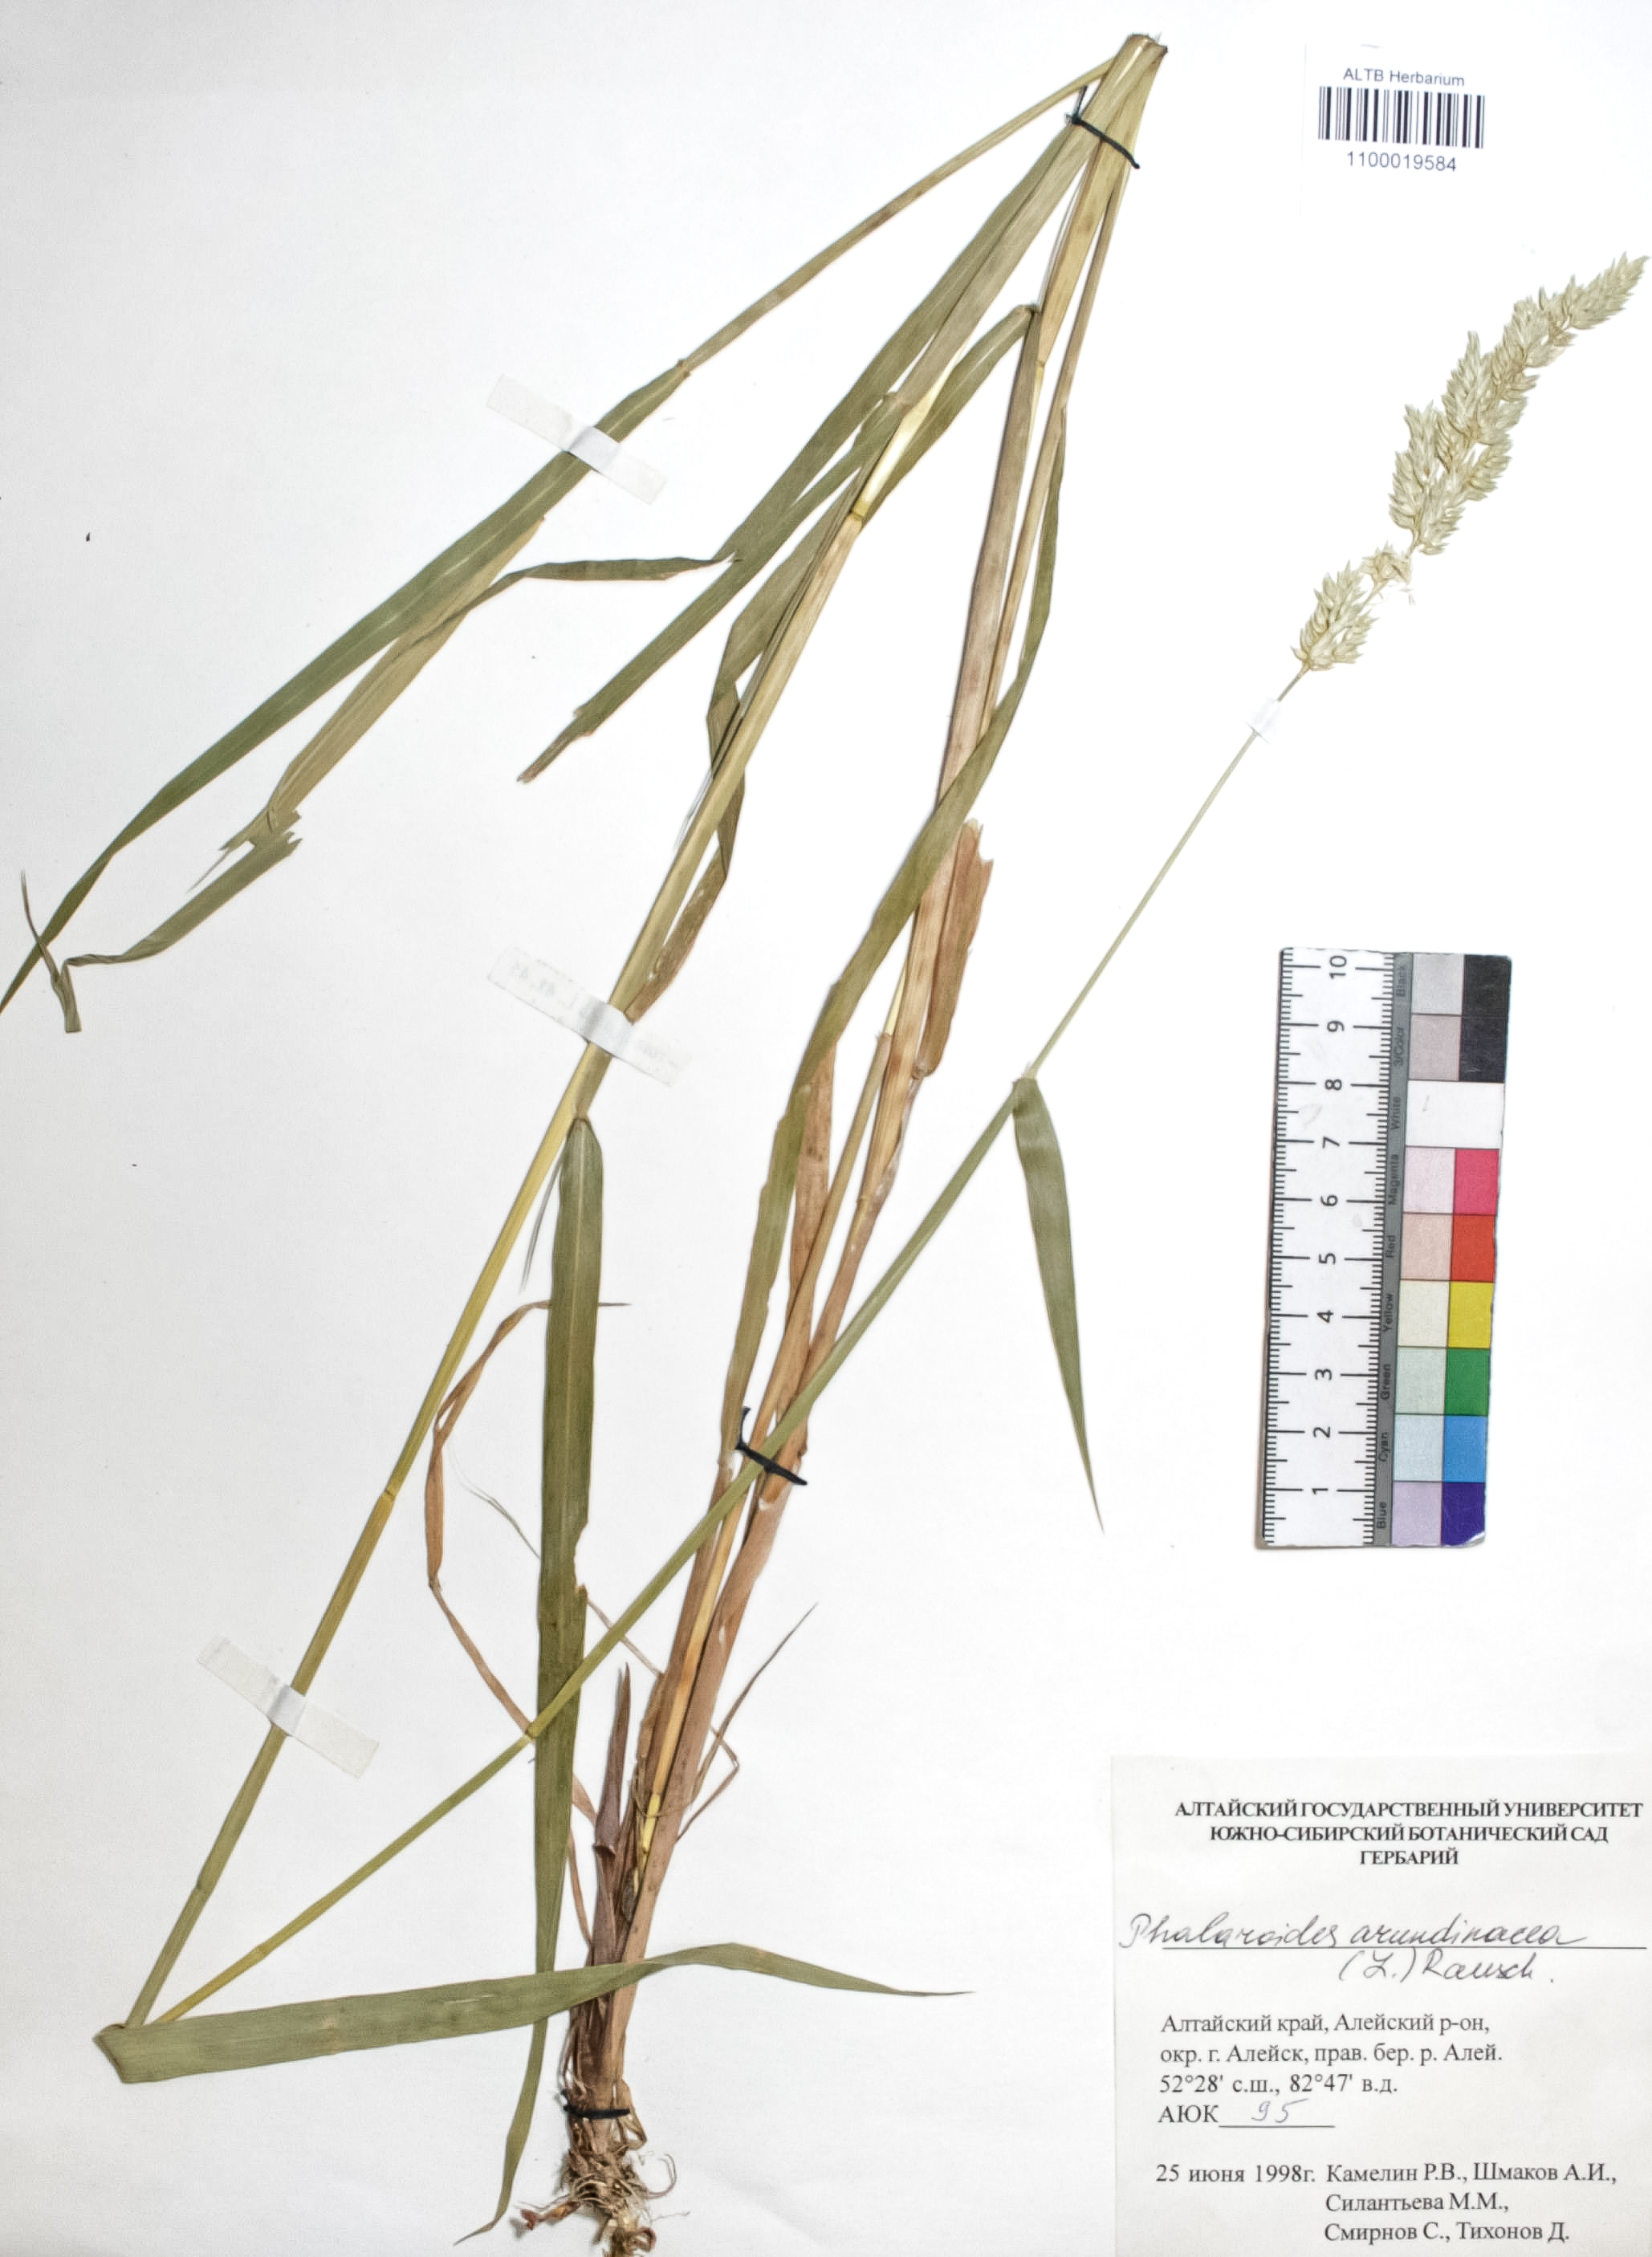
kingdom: Plantae
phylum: Tracheophyta
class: Liliopsida
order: Poales
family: Poaceae
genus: Phalaris
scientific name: Phalaris arundinacea
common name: Reed canary-grass
